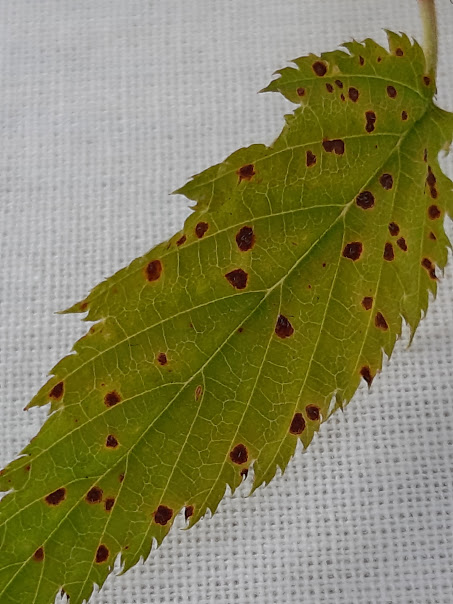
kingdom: Fungi
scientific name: Fungi
